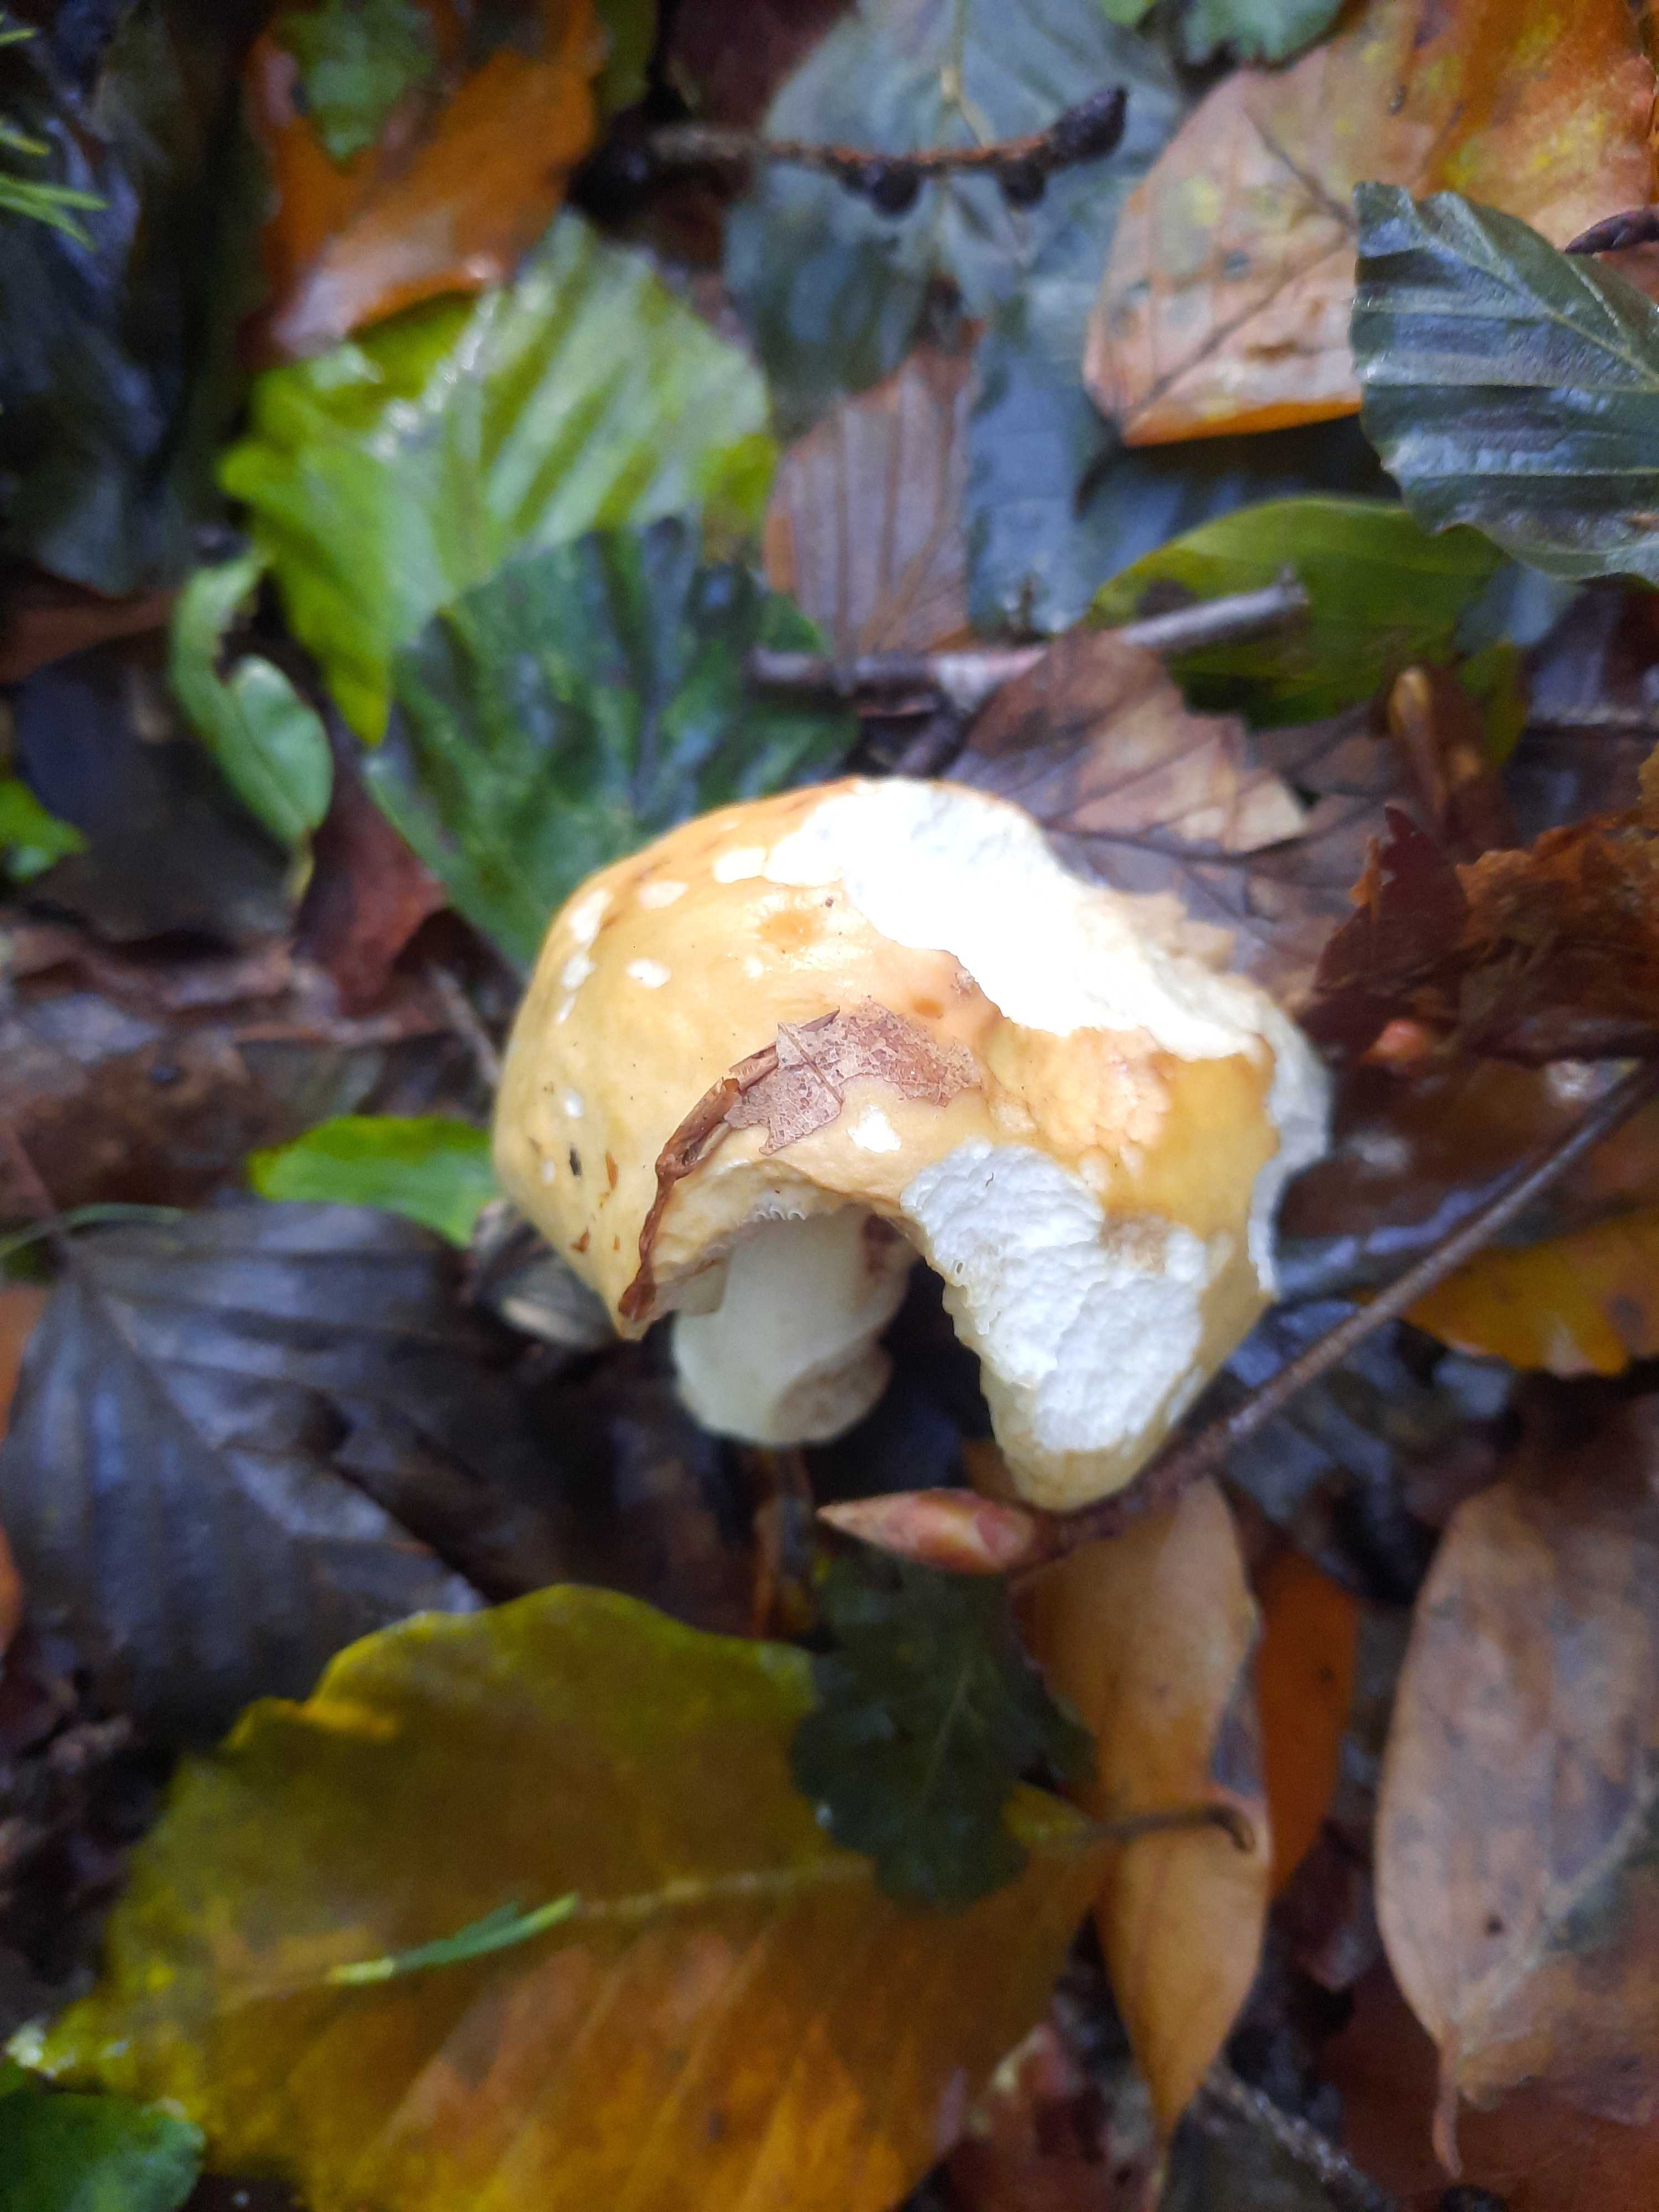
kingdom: Fungi
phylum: Basidiomycota
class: Agaricomycetes
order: Russulales
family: Russulaceae
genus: Russula
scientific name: Russula fellea
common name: galde-skørhat
